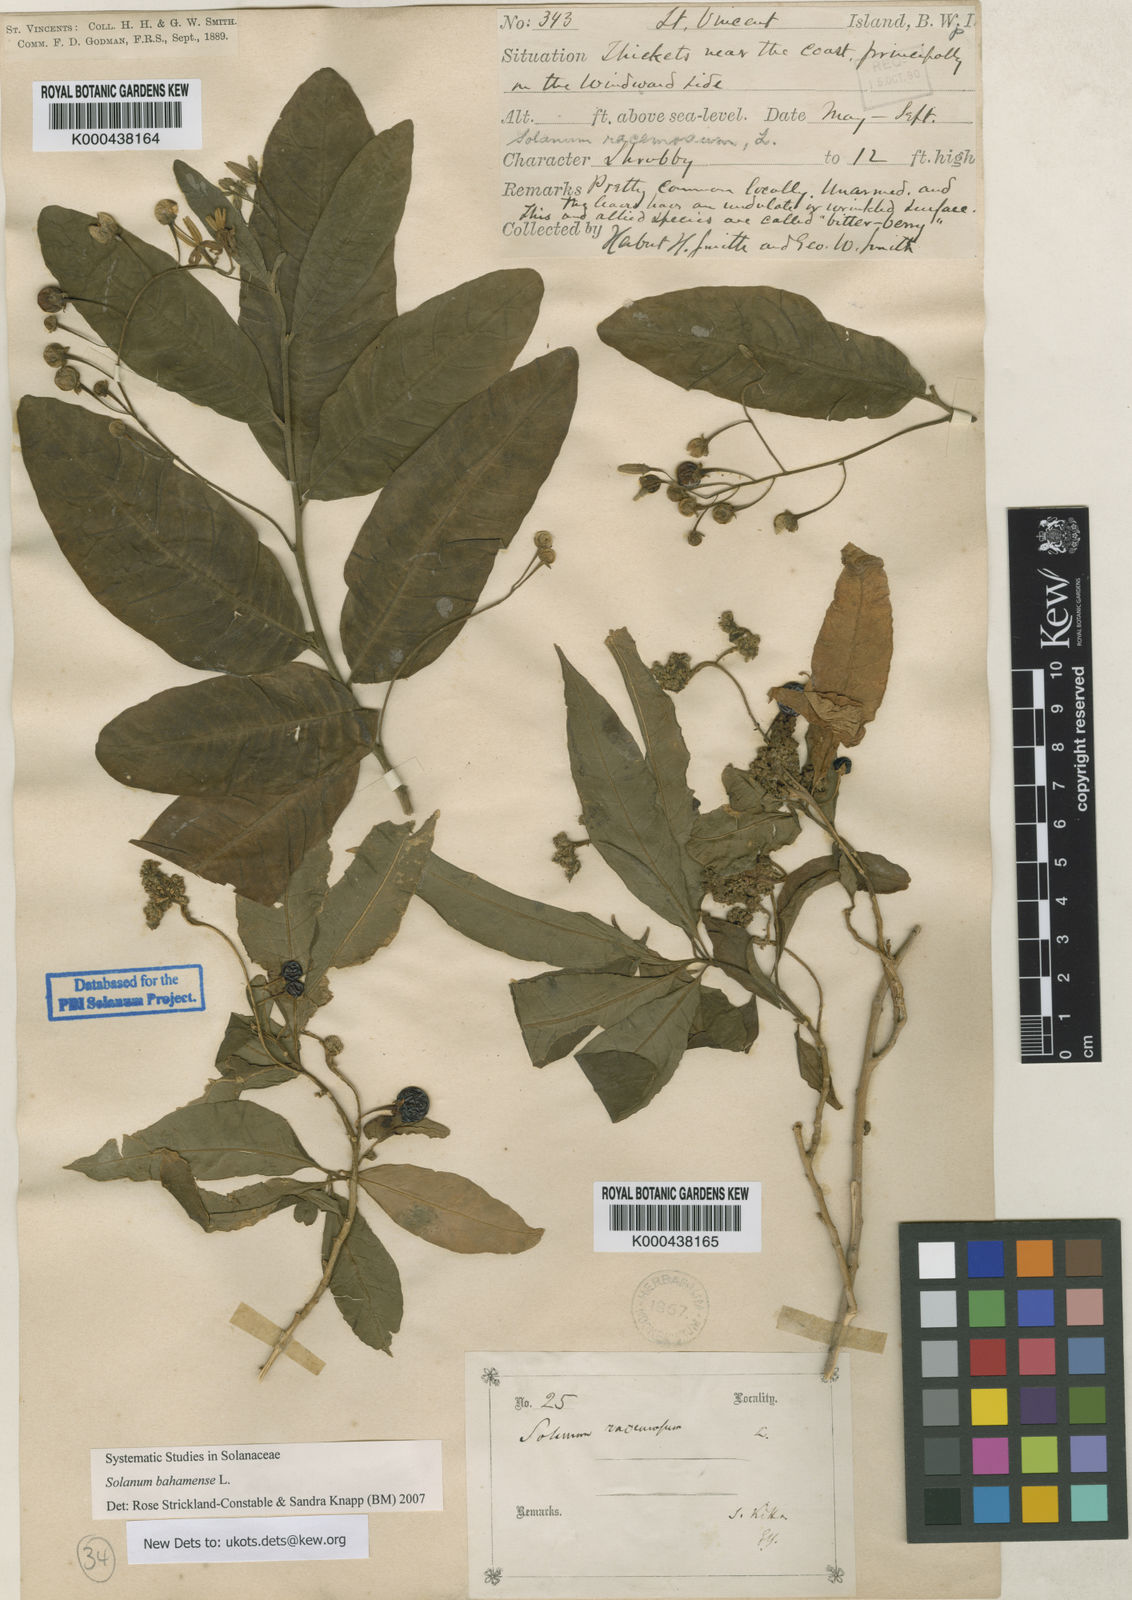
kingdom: Plantae
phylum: Tracheophyta
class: Magnoliopsida
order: Solanales
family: Solanaceae
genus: Solanum
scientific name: Solanum bahamense
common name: Canker-berry
